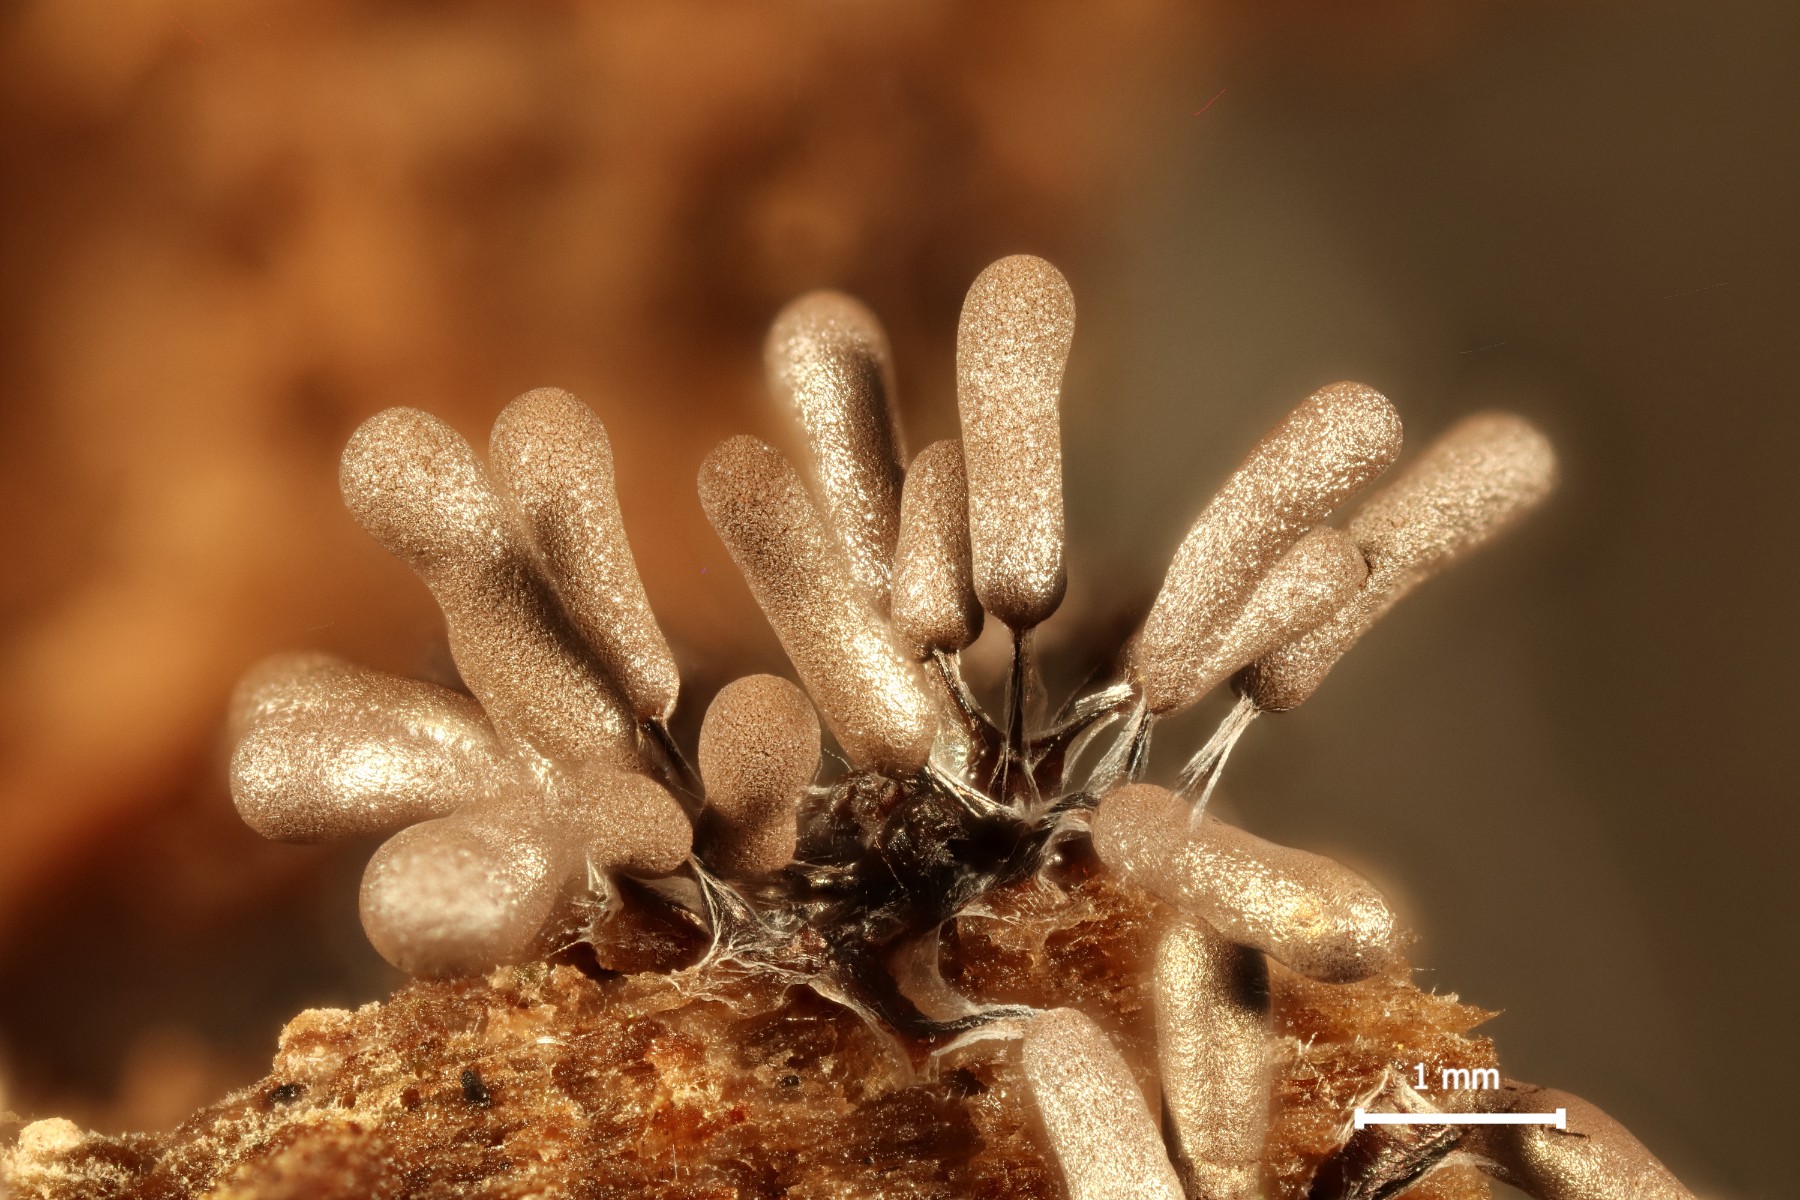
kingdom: Protozoa
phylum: Mycetozoa
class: Myxomycetes
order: Stemonitidales
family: Stemonitidaceae
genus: Stemonitopsis
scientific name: Stemonitopsis typhina
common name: skinnende støvkølle
